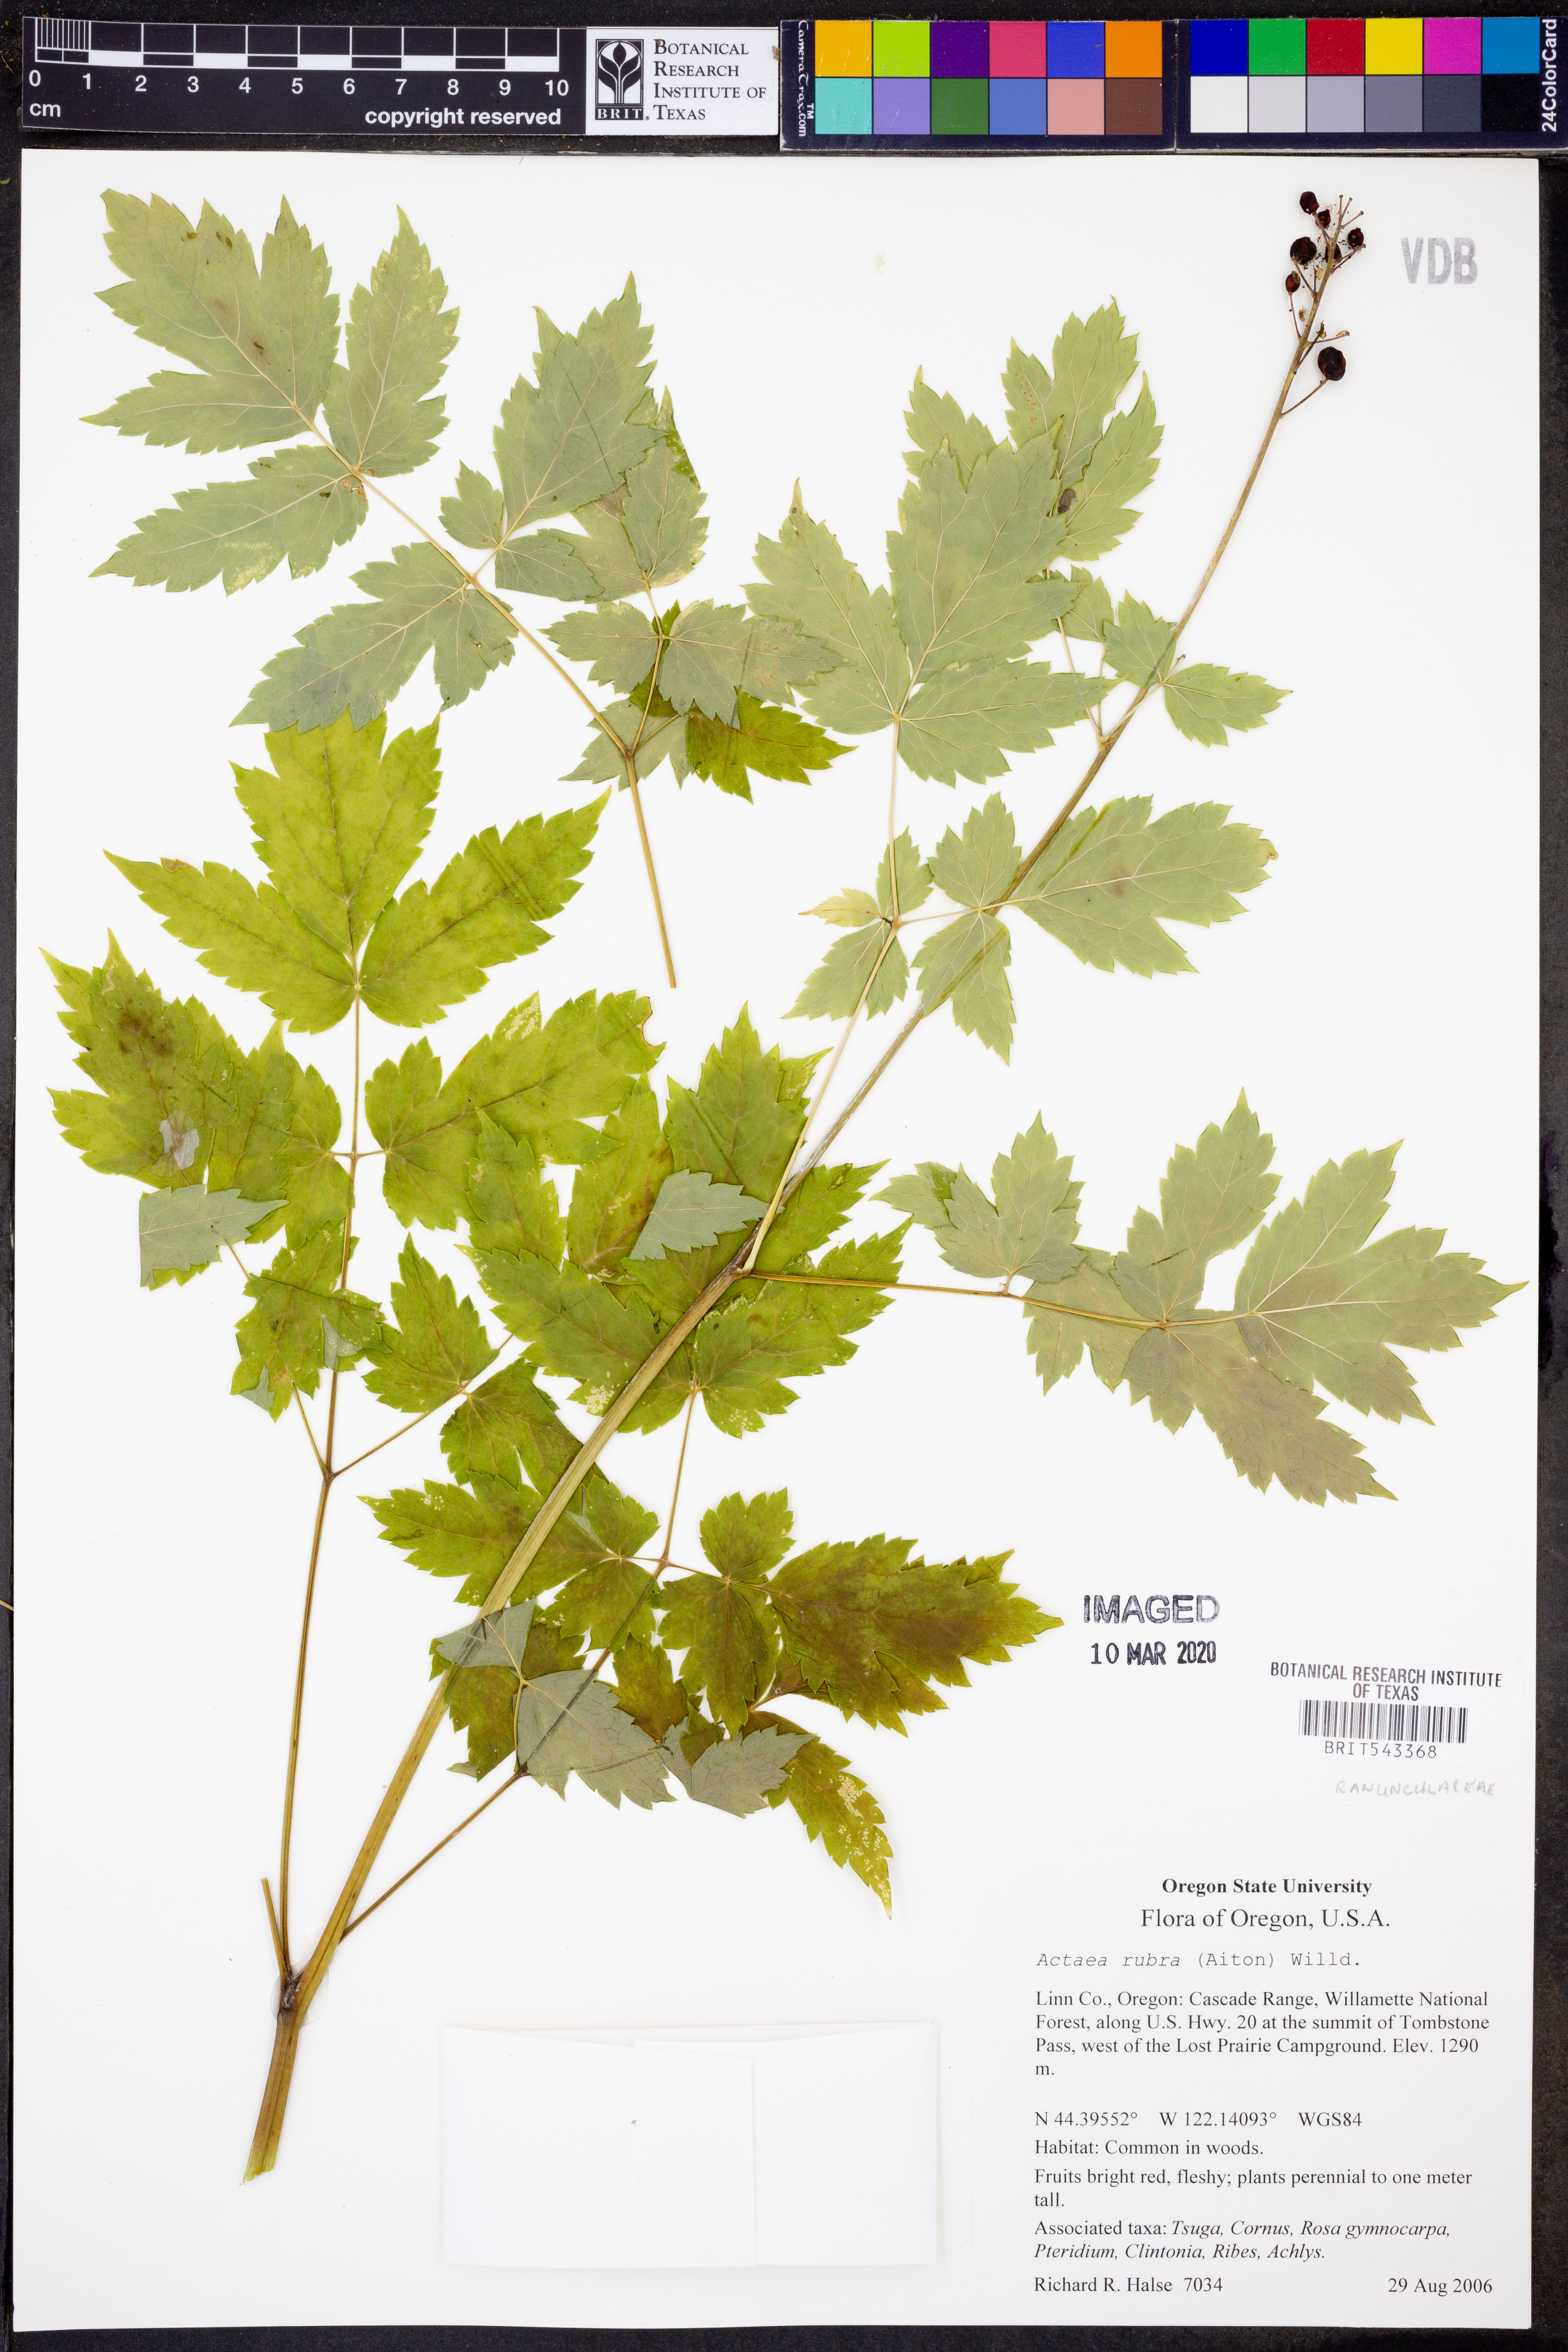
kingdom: Plantae
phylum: Tracheophyta
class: Magnoliopsida
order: Ranunculales
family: Ranunculaceae
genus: Actaea
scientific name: Actaea rubra
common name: Red baneberry
